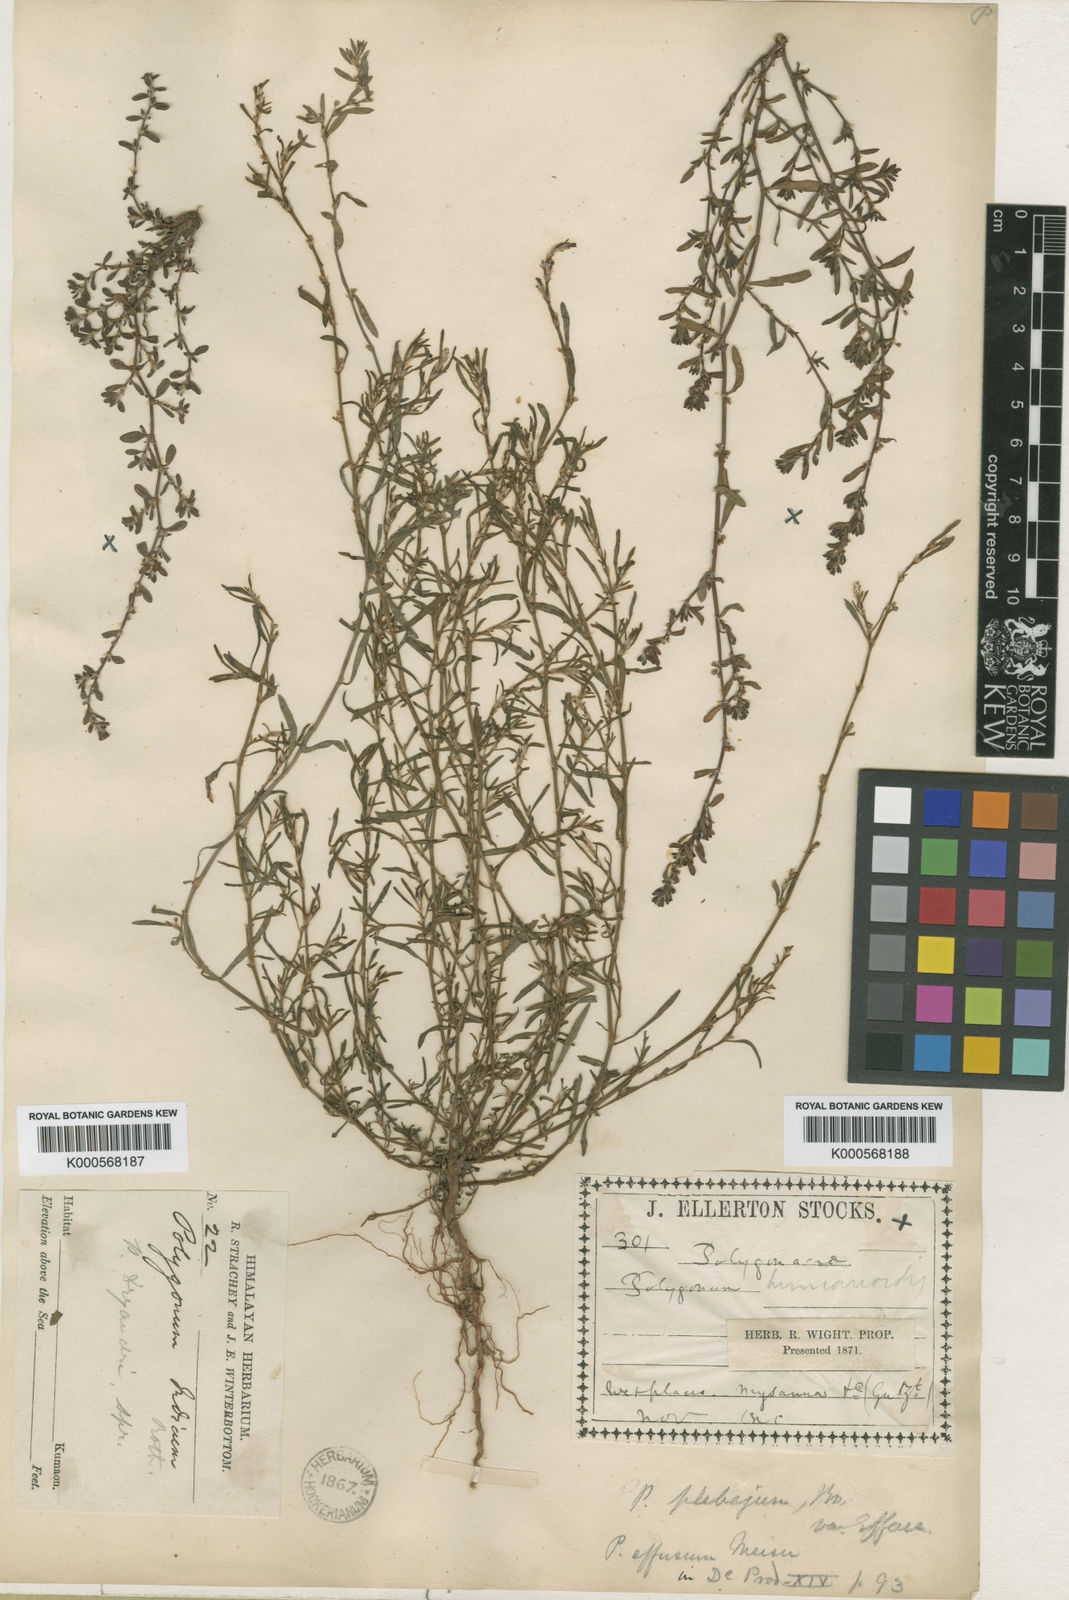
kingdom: Plantae
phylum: Tracheophyta
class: Magnoliopsida
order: Caryophyllales
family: Polygonaceae
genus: Polygonum
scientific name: Polygonum effusum
